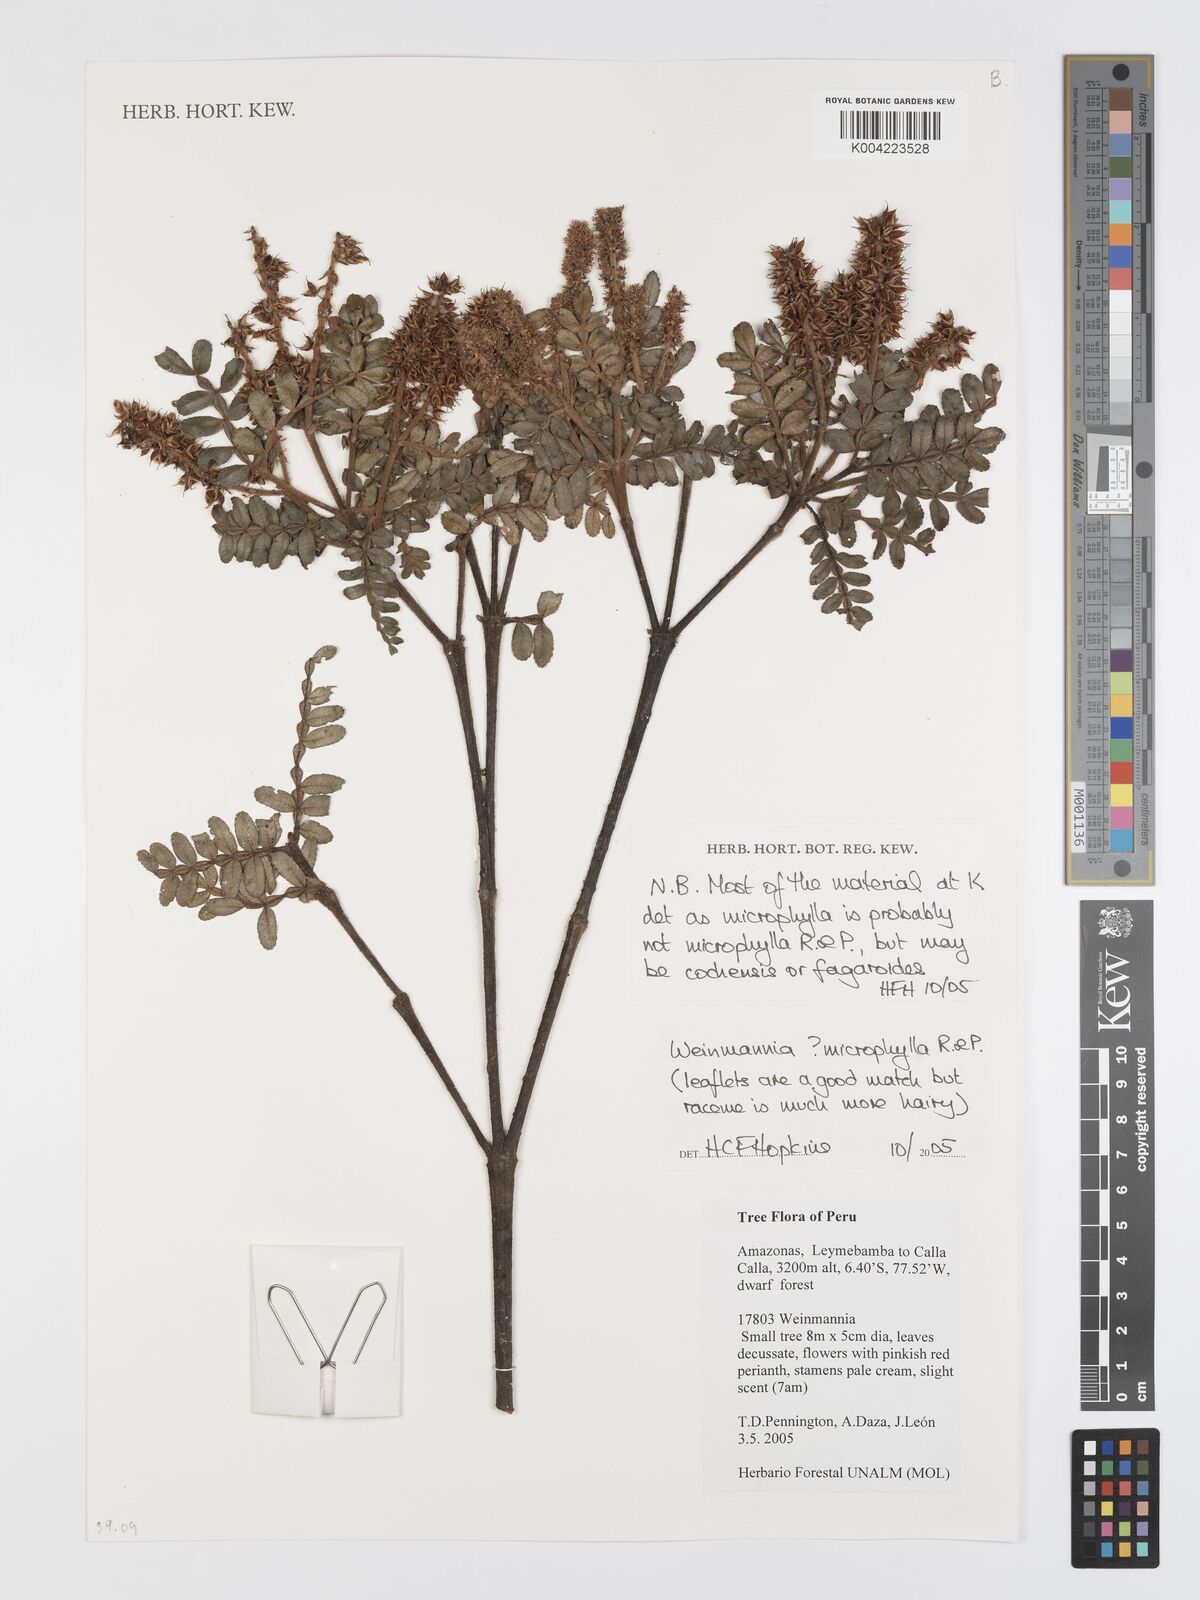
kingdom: Plantae
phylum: Tracheophyta
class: Magnoliopsida
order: Oxalidales
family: Cunoniaceae
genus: Weinmannia
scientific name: Weinmannia microphylla
